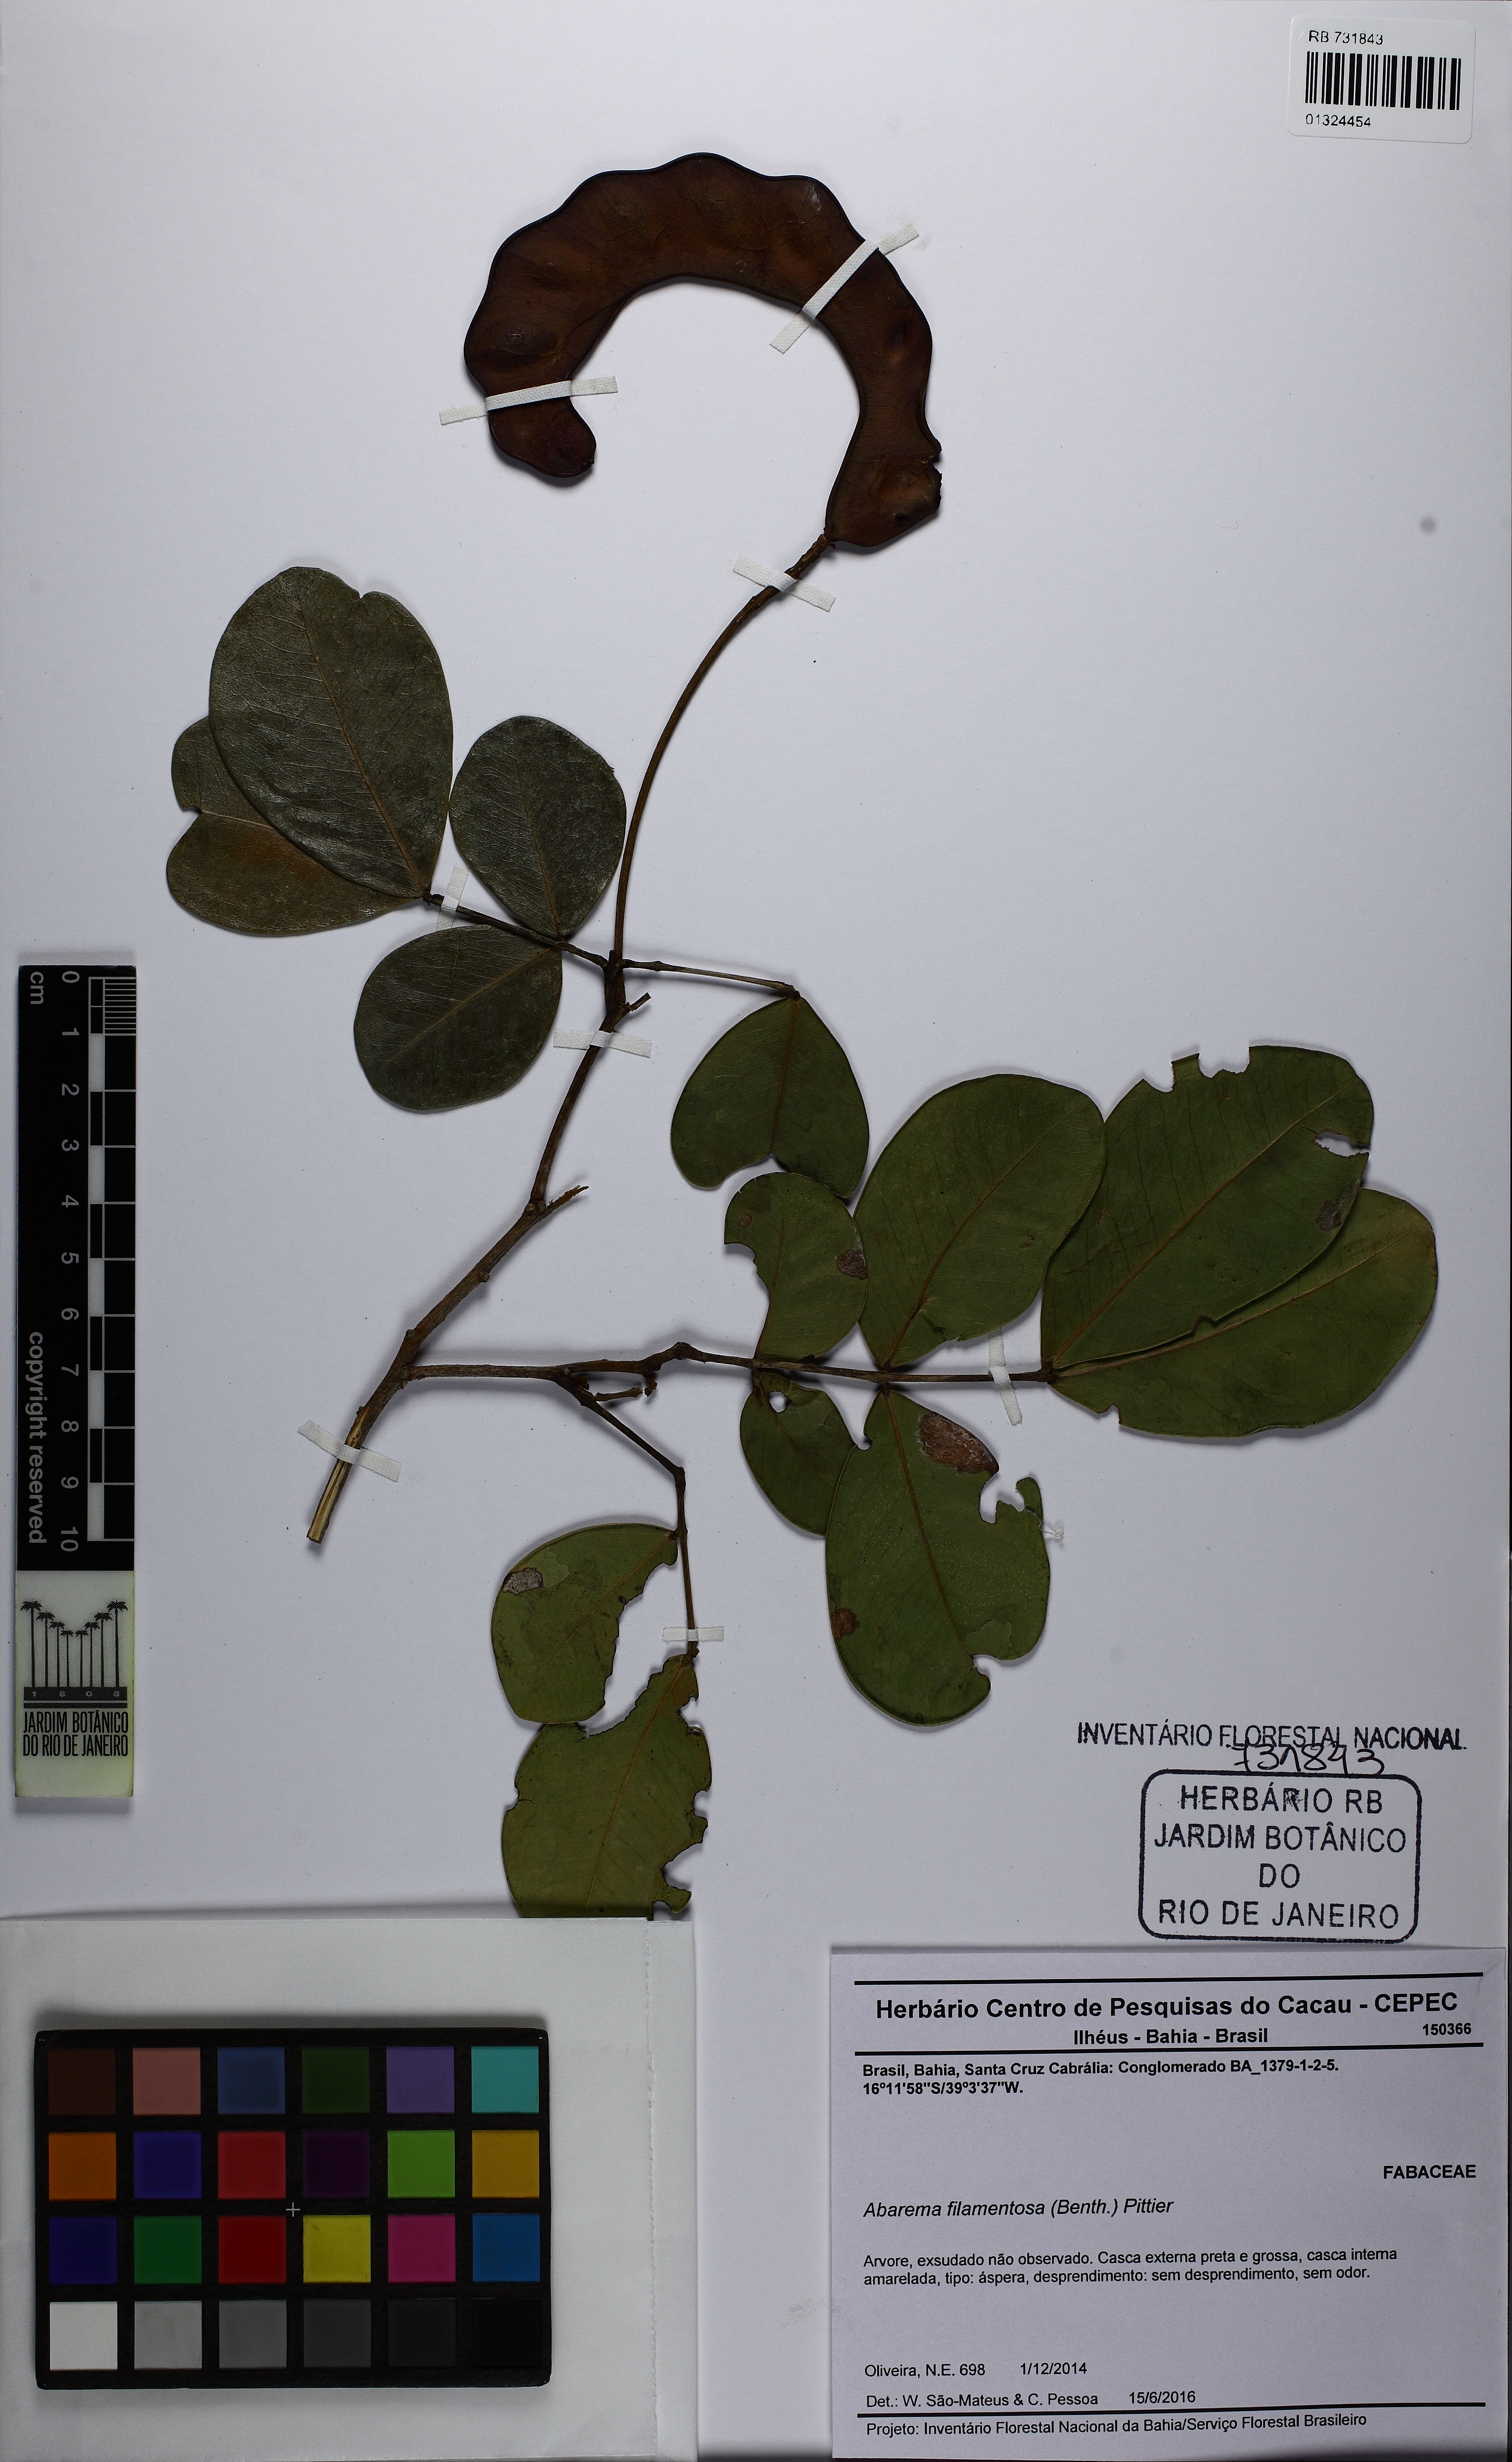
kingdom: Plantae
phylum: Tracheophyta
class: Magnoliopsida
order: Fabales
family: Fabaceae
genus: Jupunba
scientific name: Jupunba filamentosa
